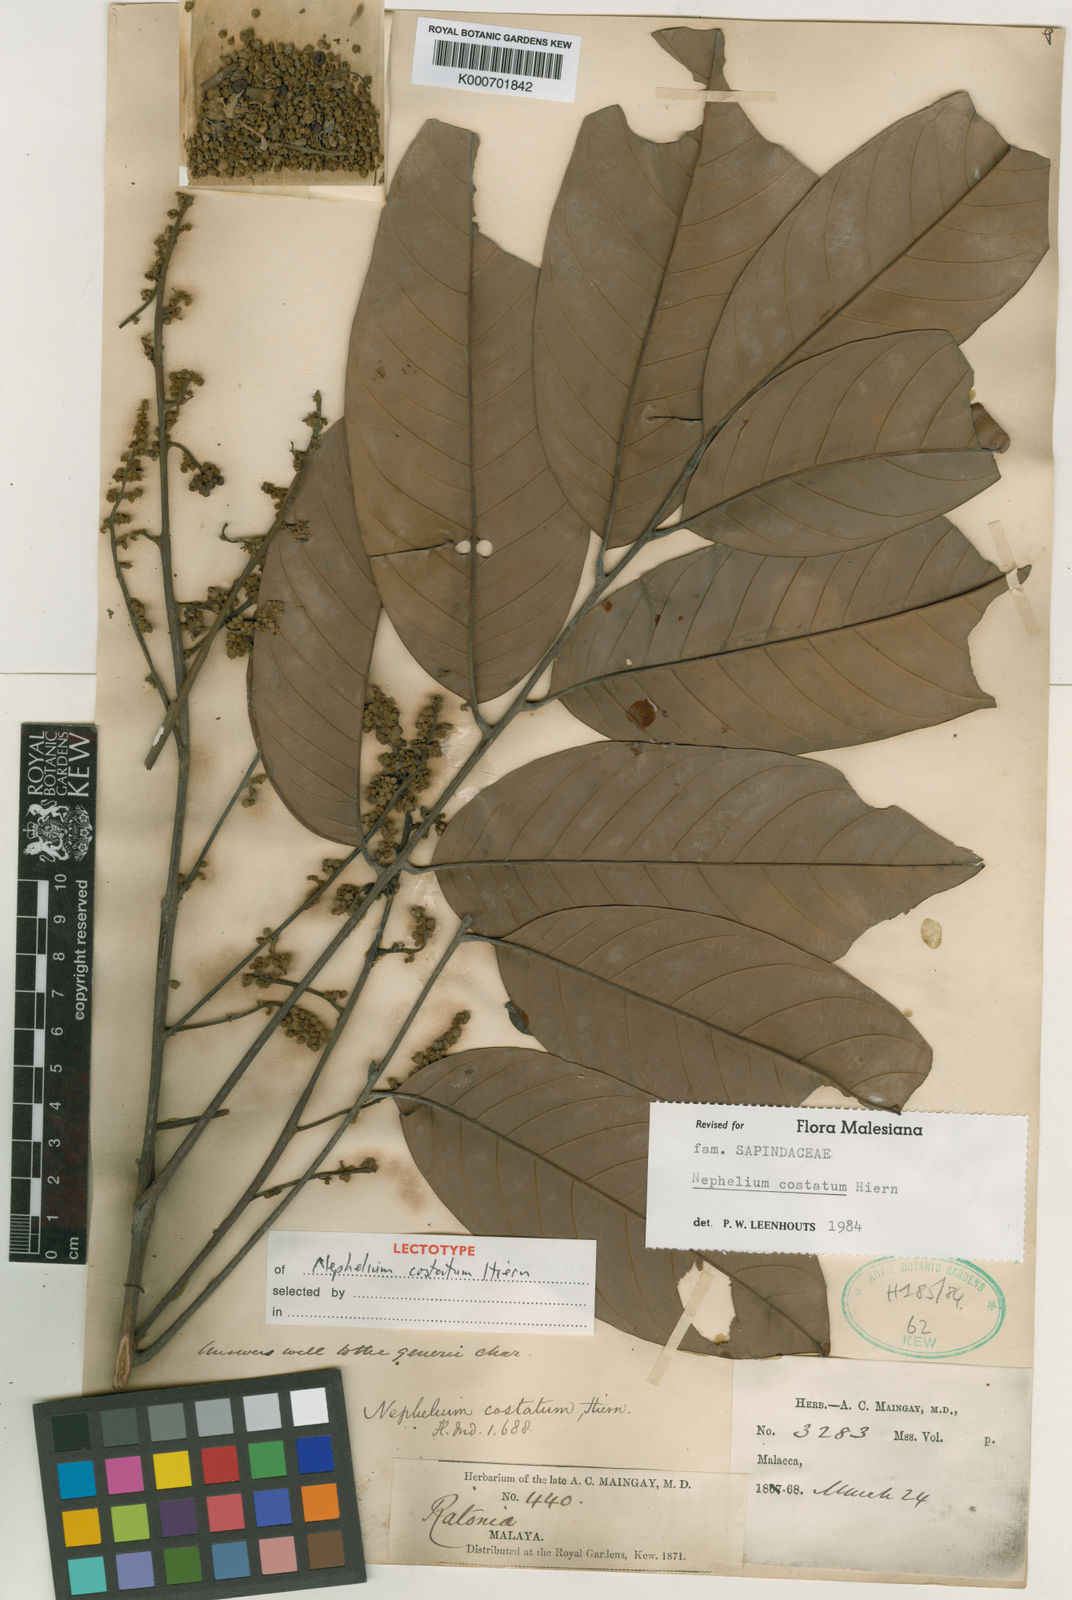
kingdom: Plantae
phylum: Tracheophyta
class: Magnoliopsida
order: Sapindales
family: Sapindaceae
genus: Nephelium
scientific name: Nephelium costatum
